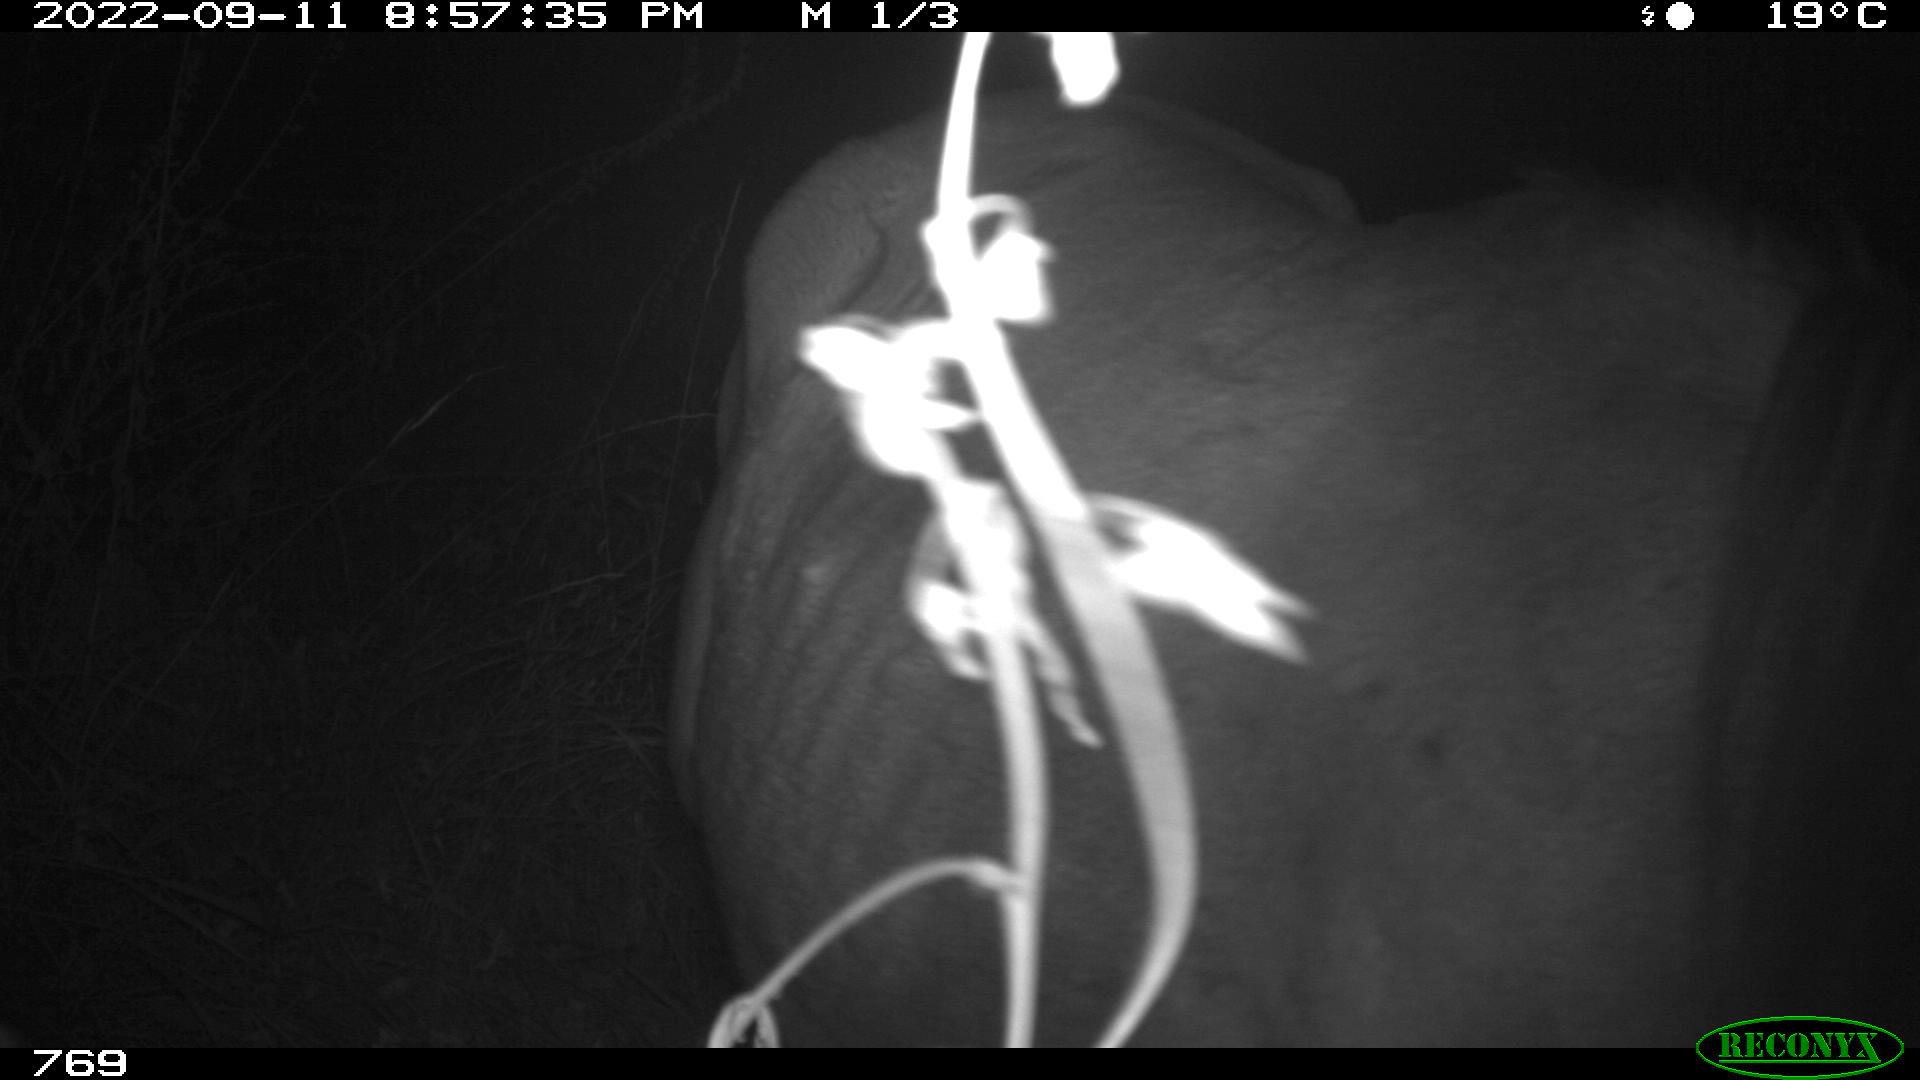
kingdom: Animalia
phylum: Chordata
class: Mammalia
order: Perissodactyla
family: Equidae
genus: Equus
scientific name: Equus caballus
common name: Horse
